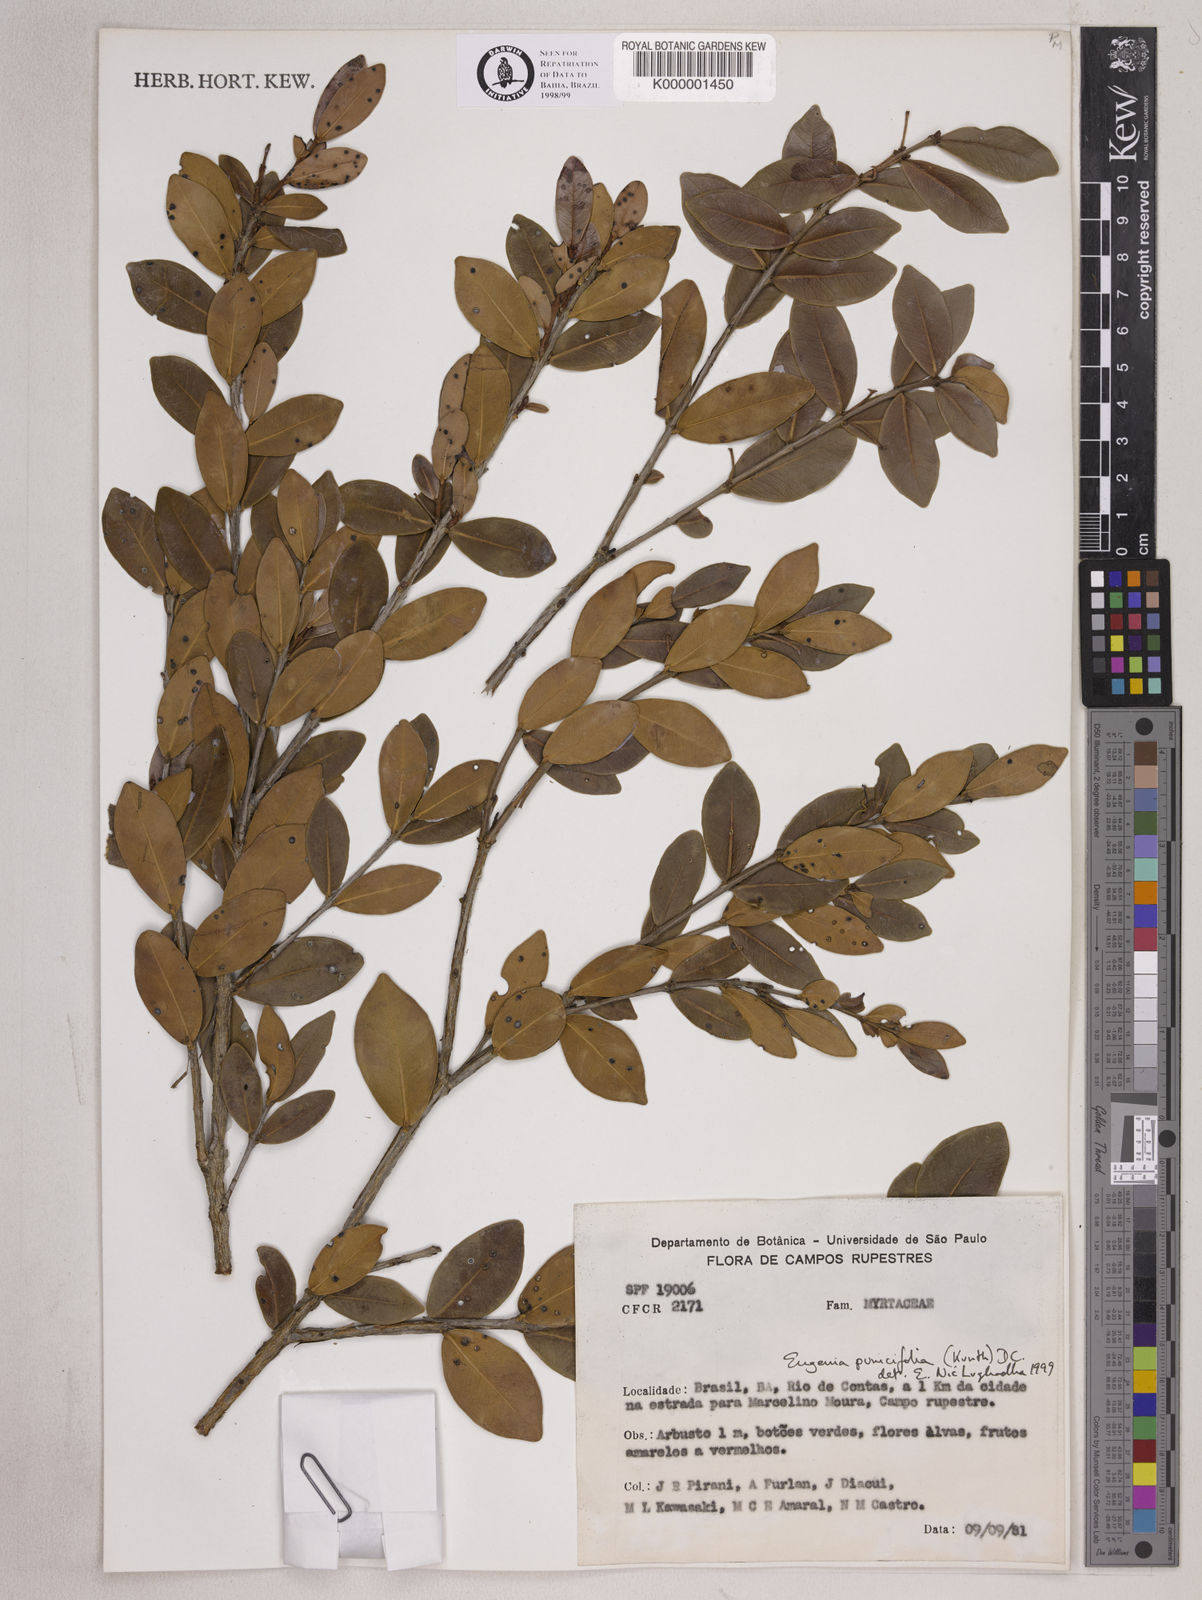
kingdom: Plantae
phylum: Tracheophyta
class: Magnoliopsida
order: Myrtales
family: Myrtaceae
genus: Eugenia
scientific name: Eugenia punicifolia
